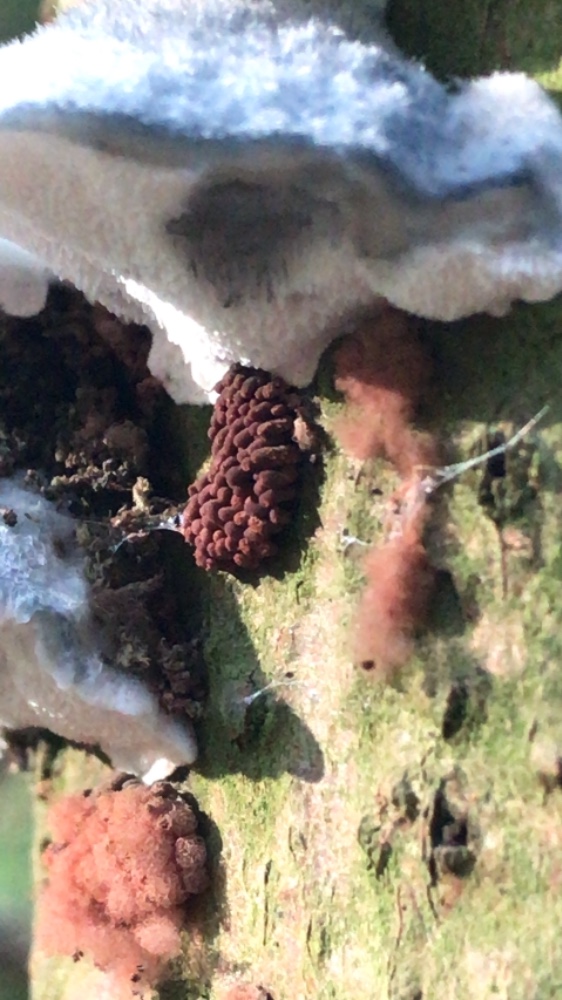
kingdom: Protozoa
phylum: Amoebozoa
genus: Arcyria
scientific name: Arcyria
